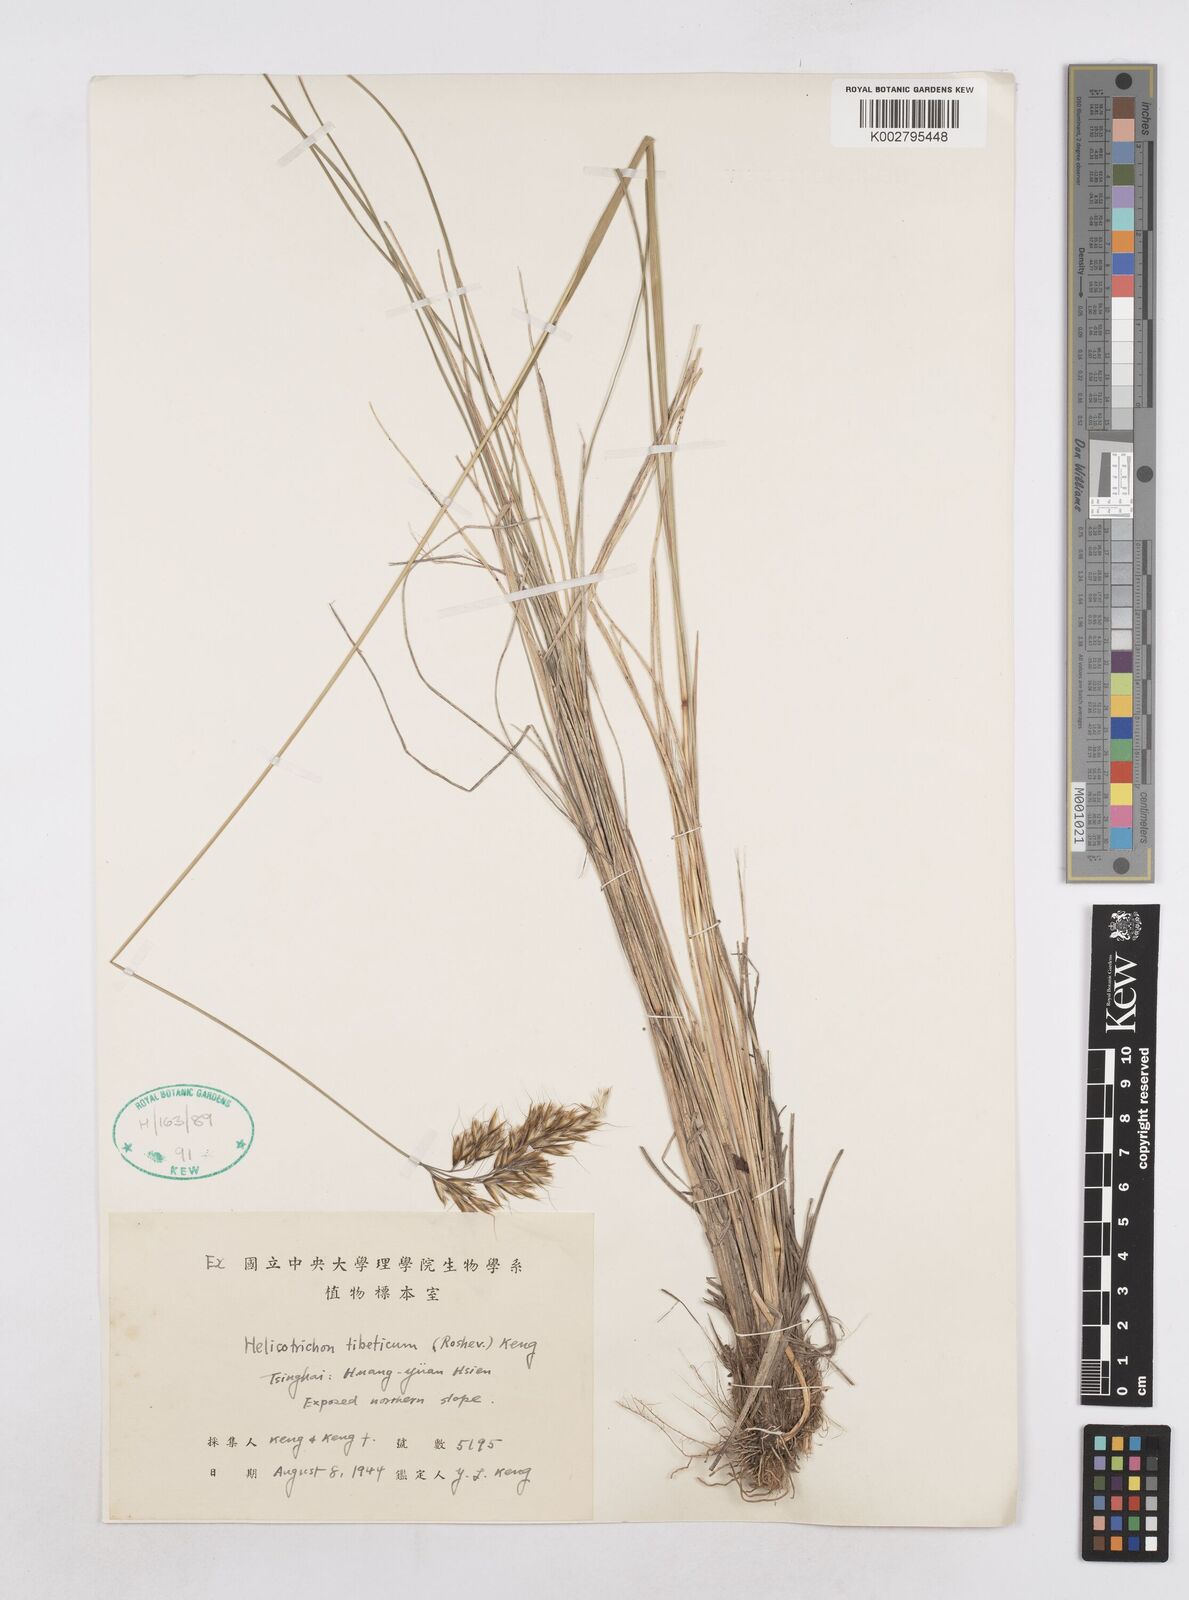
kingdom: Plantae
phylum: Tracheophyta
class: Liliopsida
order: Poales
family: Poaceae
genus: Helictotrichon
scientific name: Helictotrichon tibeticum
